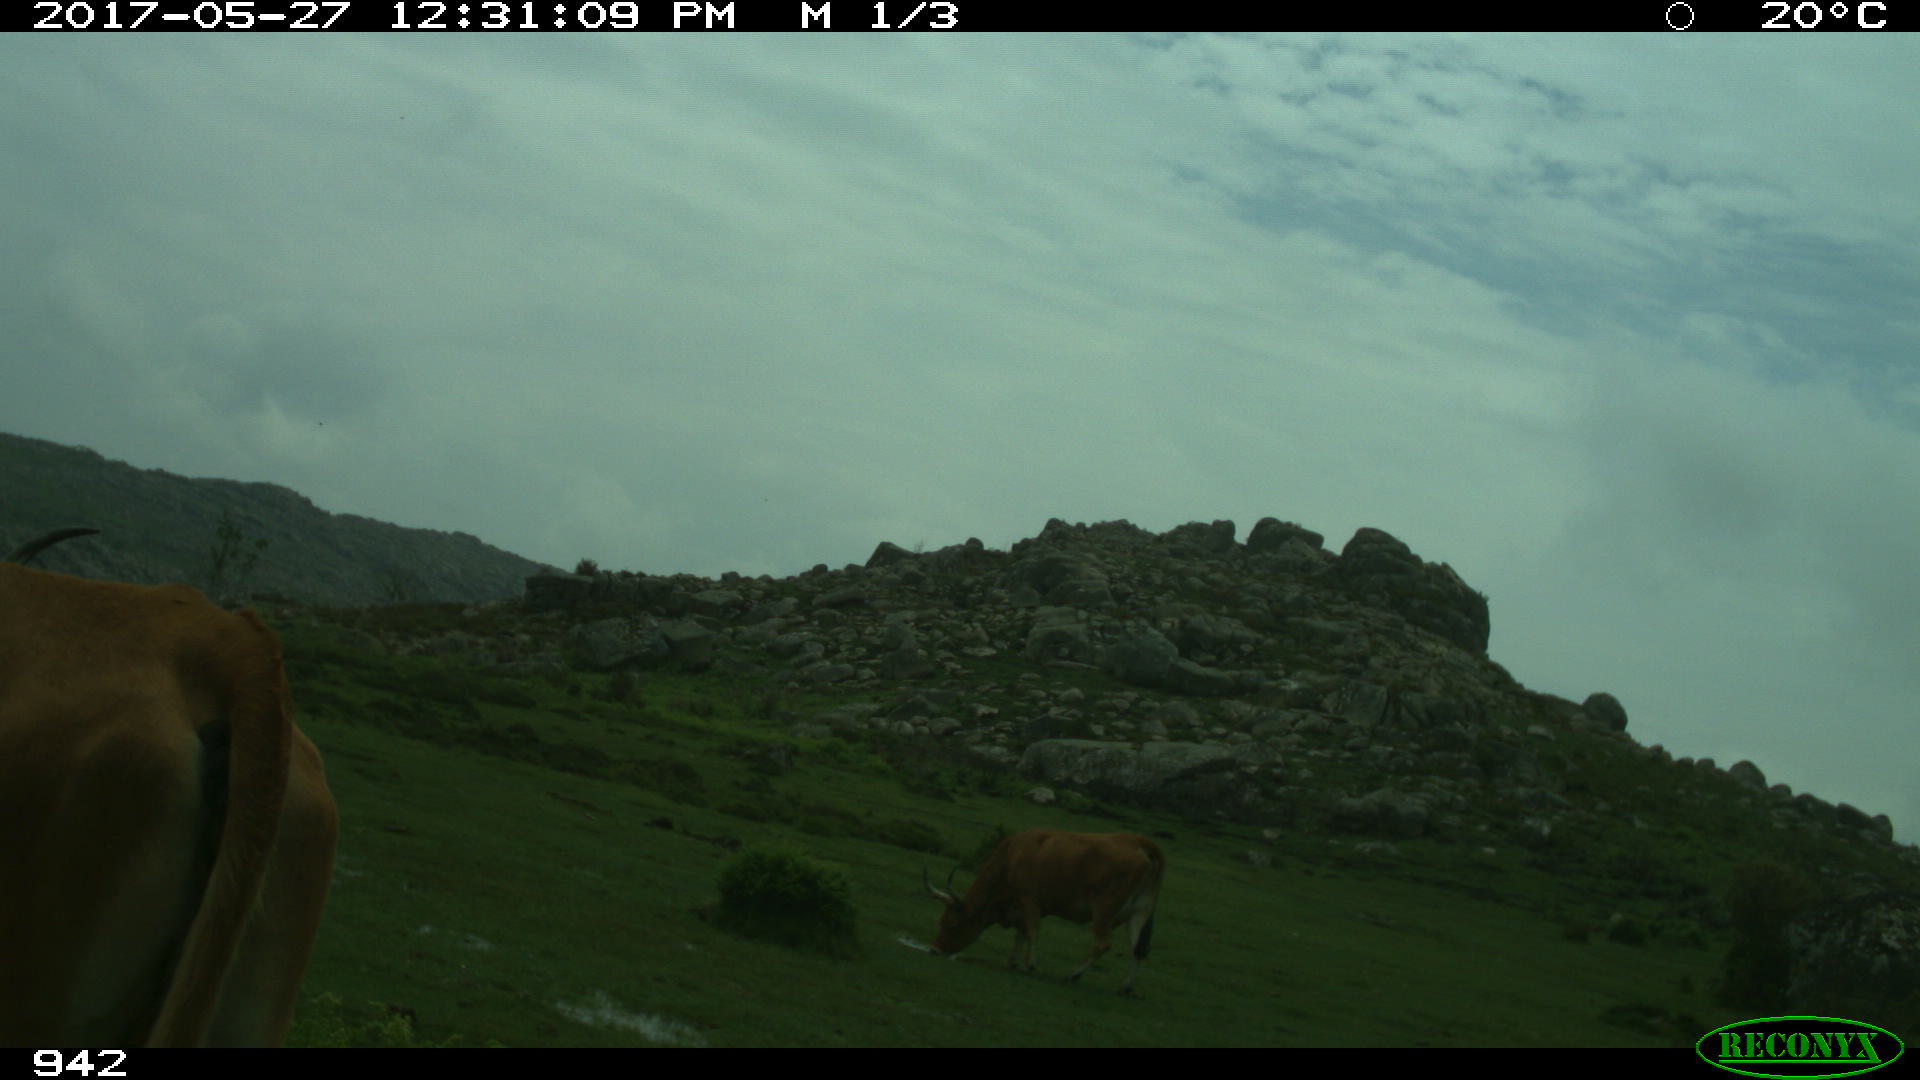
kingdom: Animalia
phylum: Chordata
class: Mammalia
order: Artiodactyla
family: Bovidae
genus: Bos
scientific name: Bos taurus
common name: Domesticated cattle
